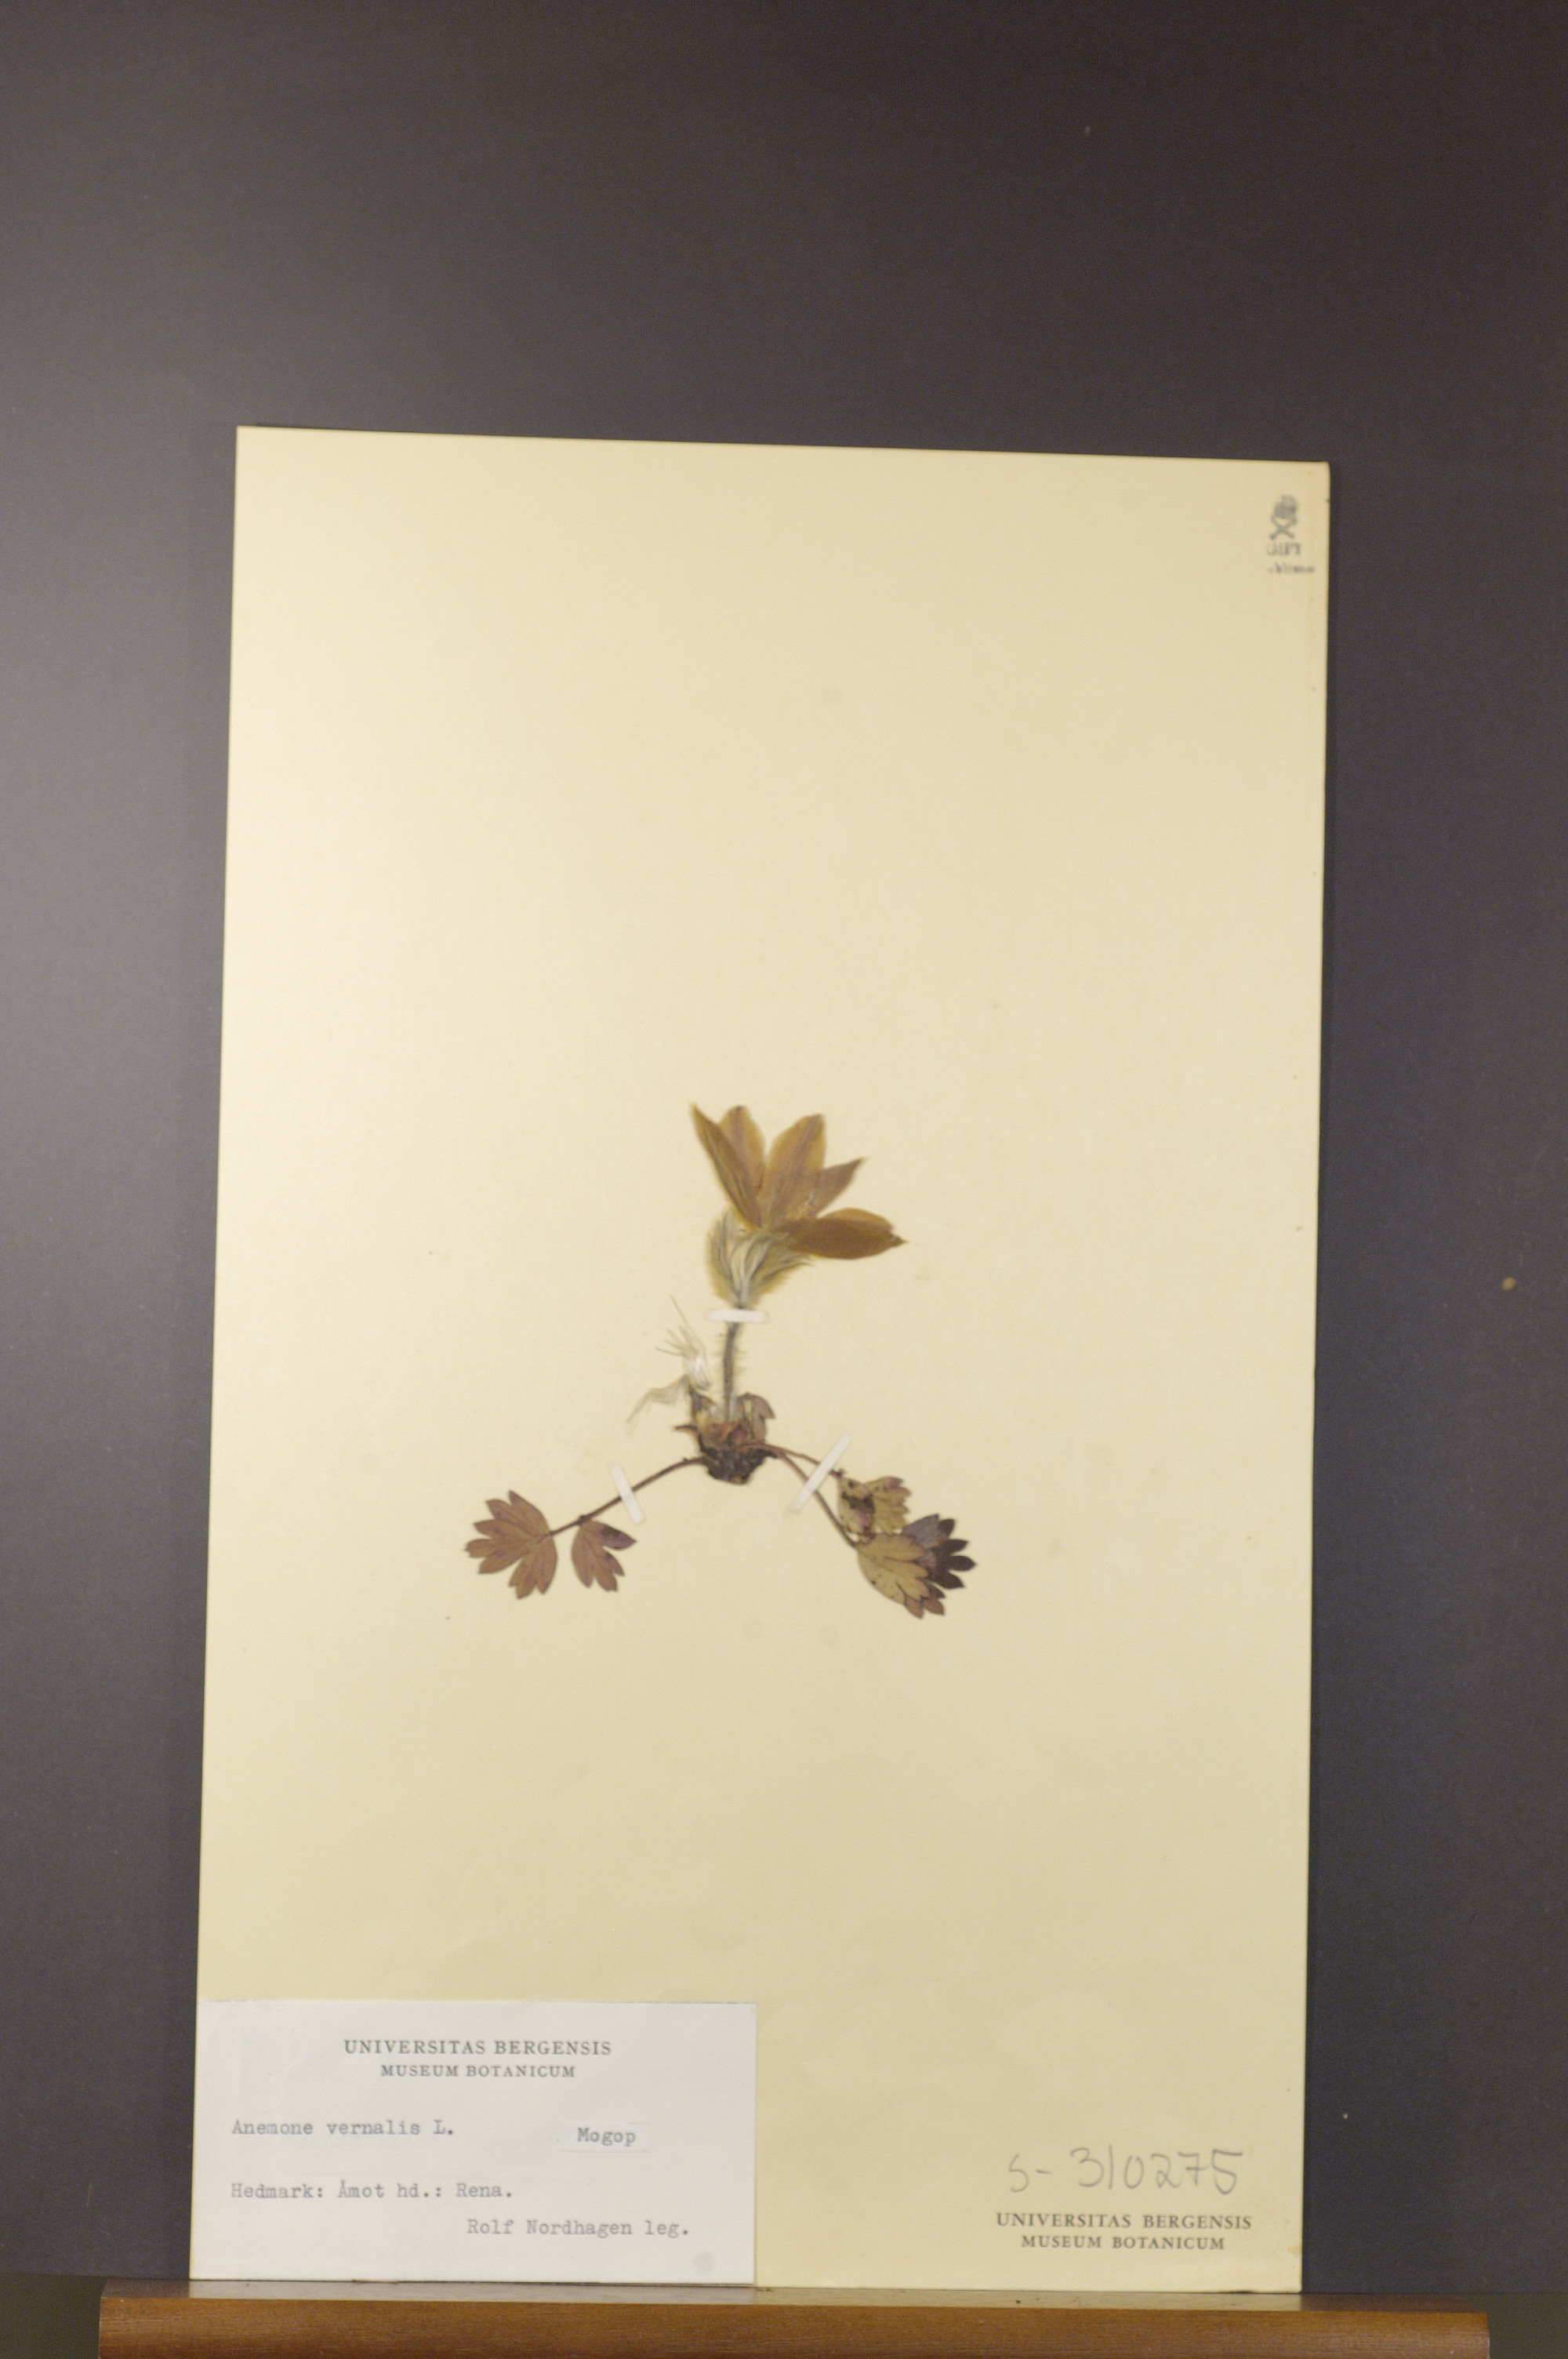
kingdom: Plantae
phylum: Tracheophyta
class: Magnoliopsida
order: Ranunculales
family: Ranunculaceae
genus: Pulsatilla
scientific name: Pulsatilla vernalis
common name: Spring pasque flower
